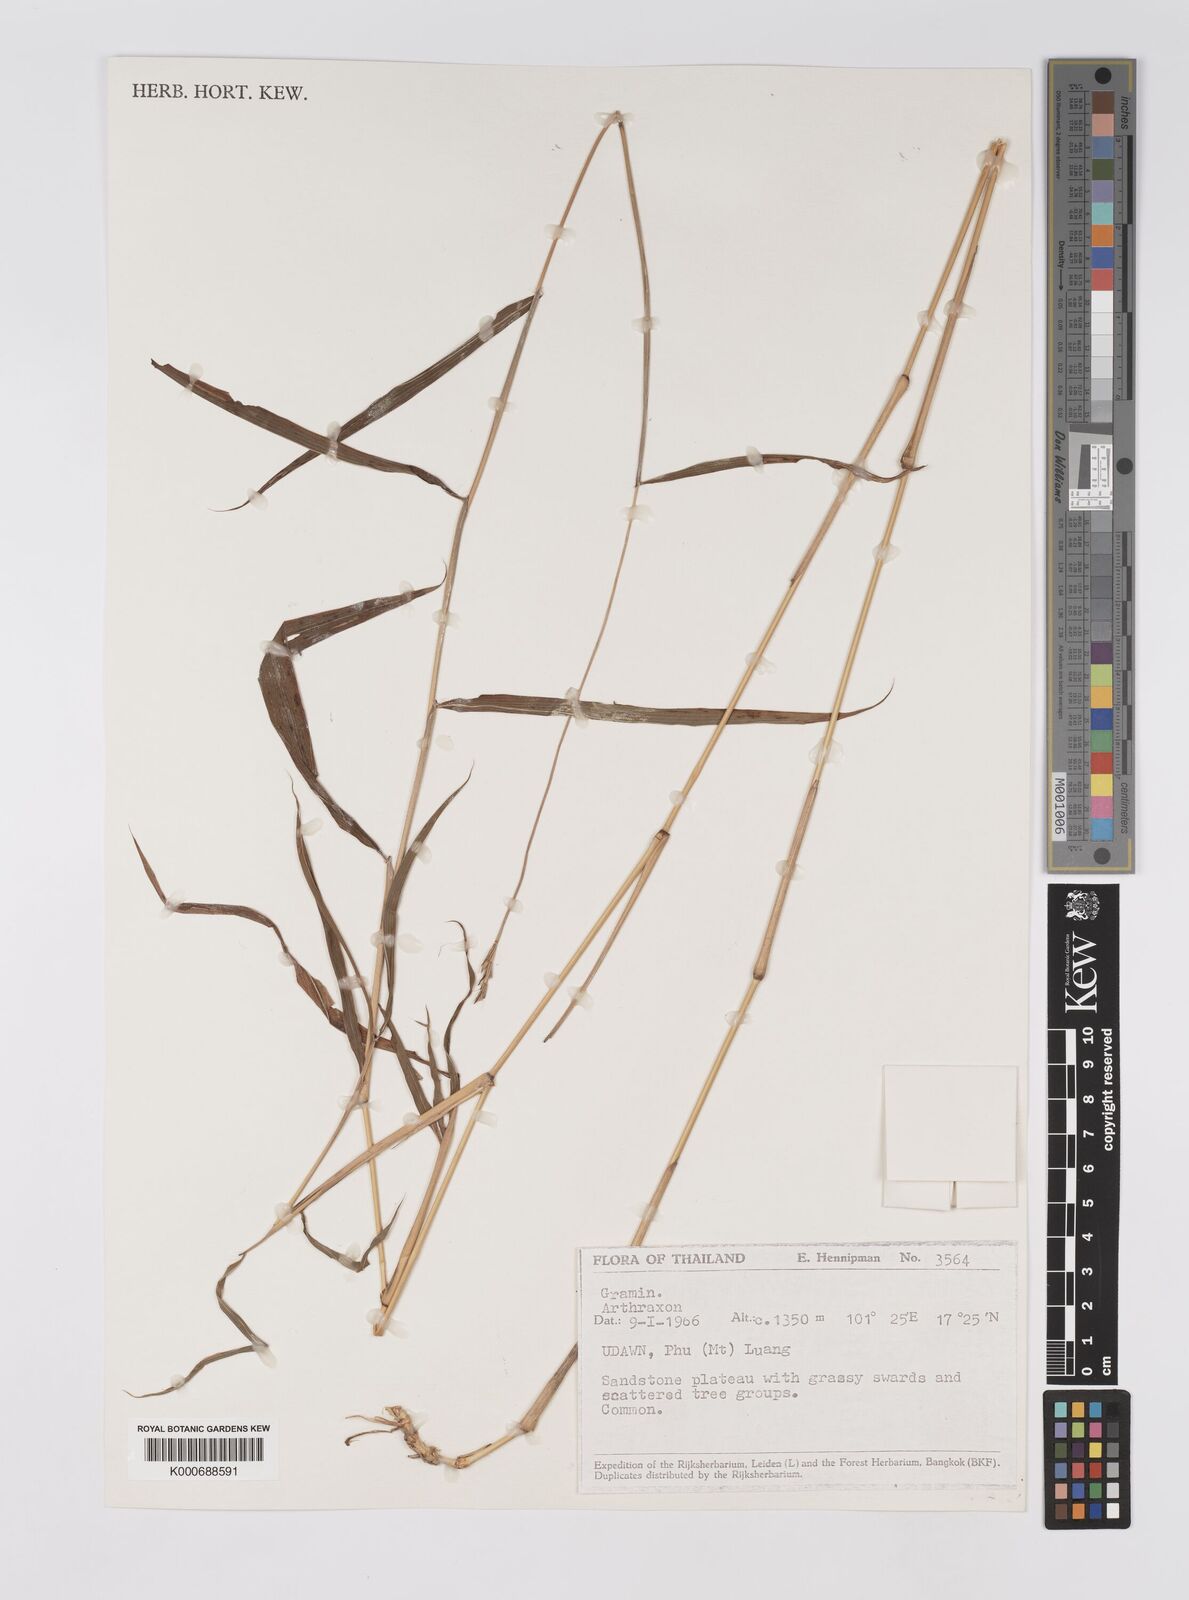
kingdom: Plantae
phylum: Tracheophyta
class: Liliopsida
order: Poales
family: Poaceae
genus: Microstegium
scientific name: Microstegium fasciculatum
